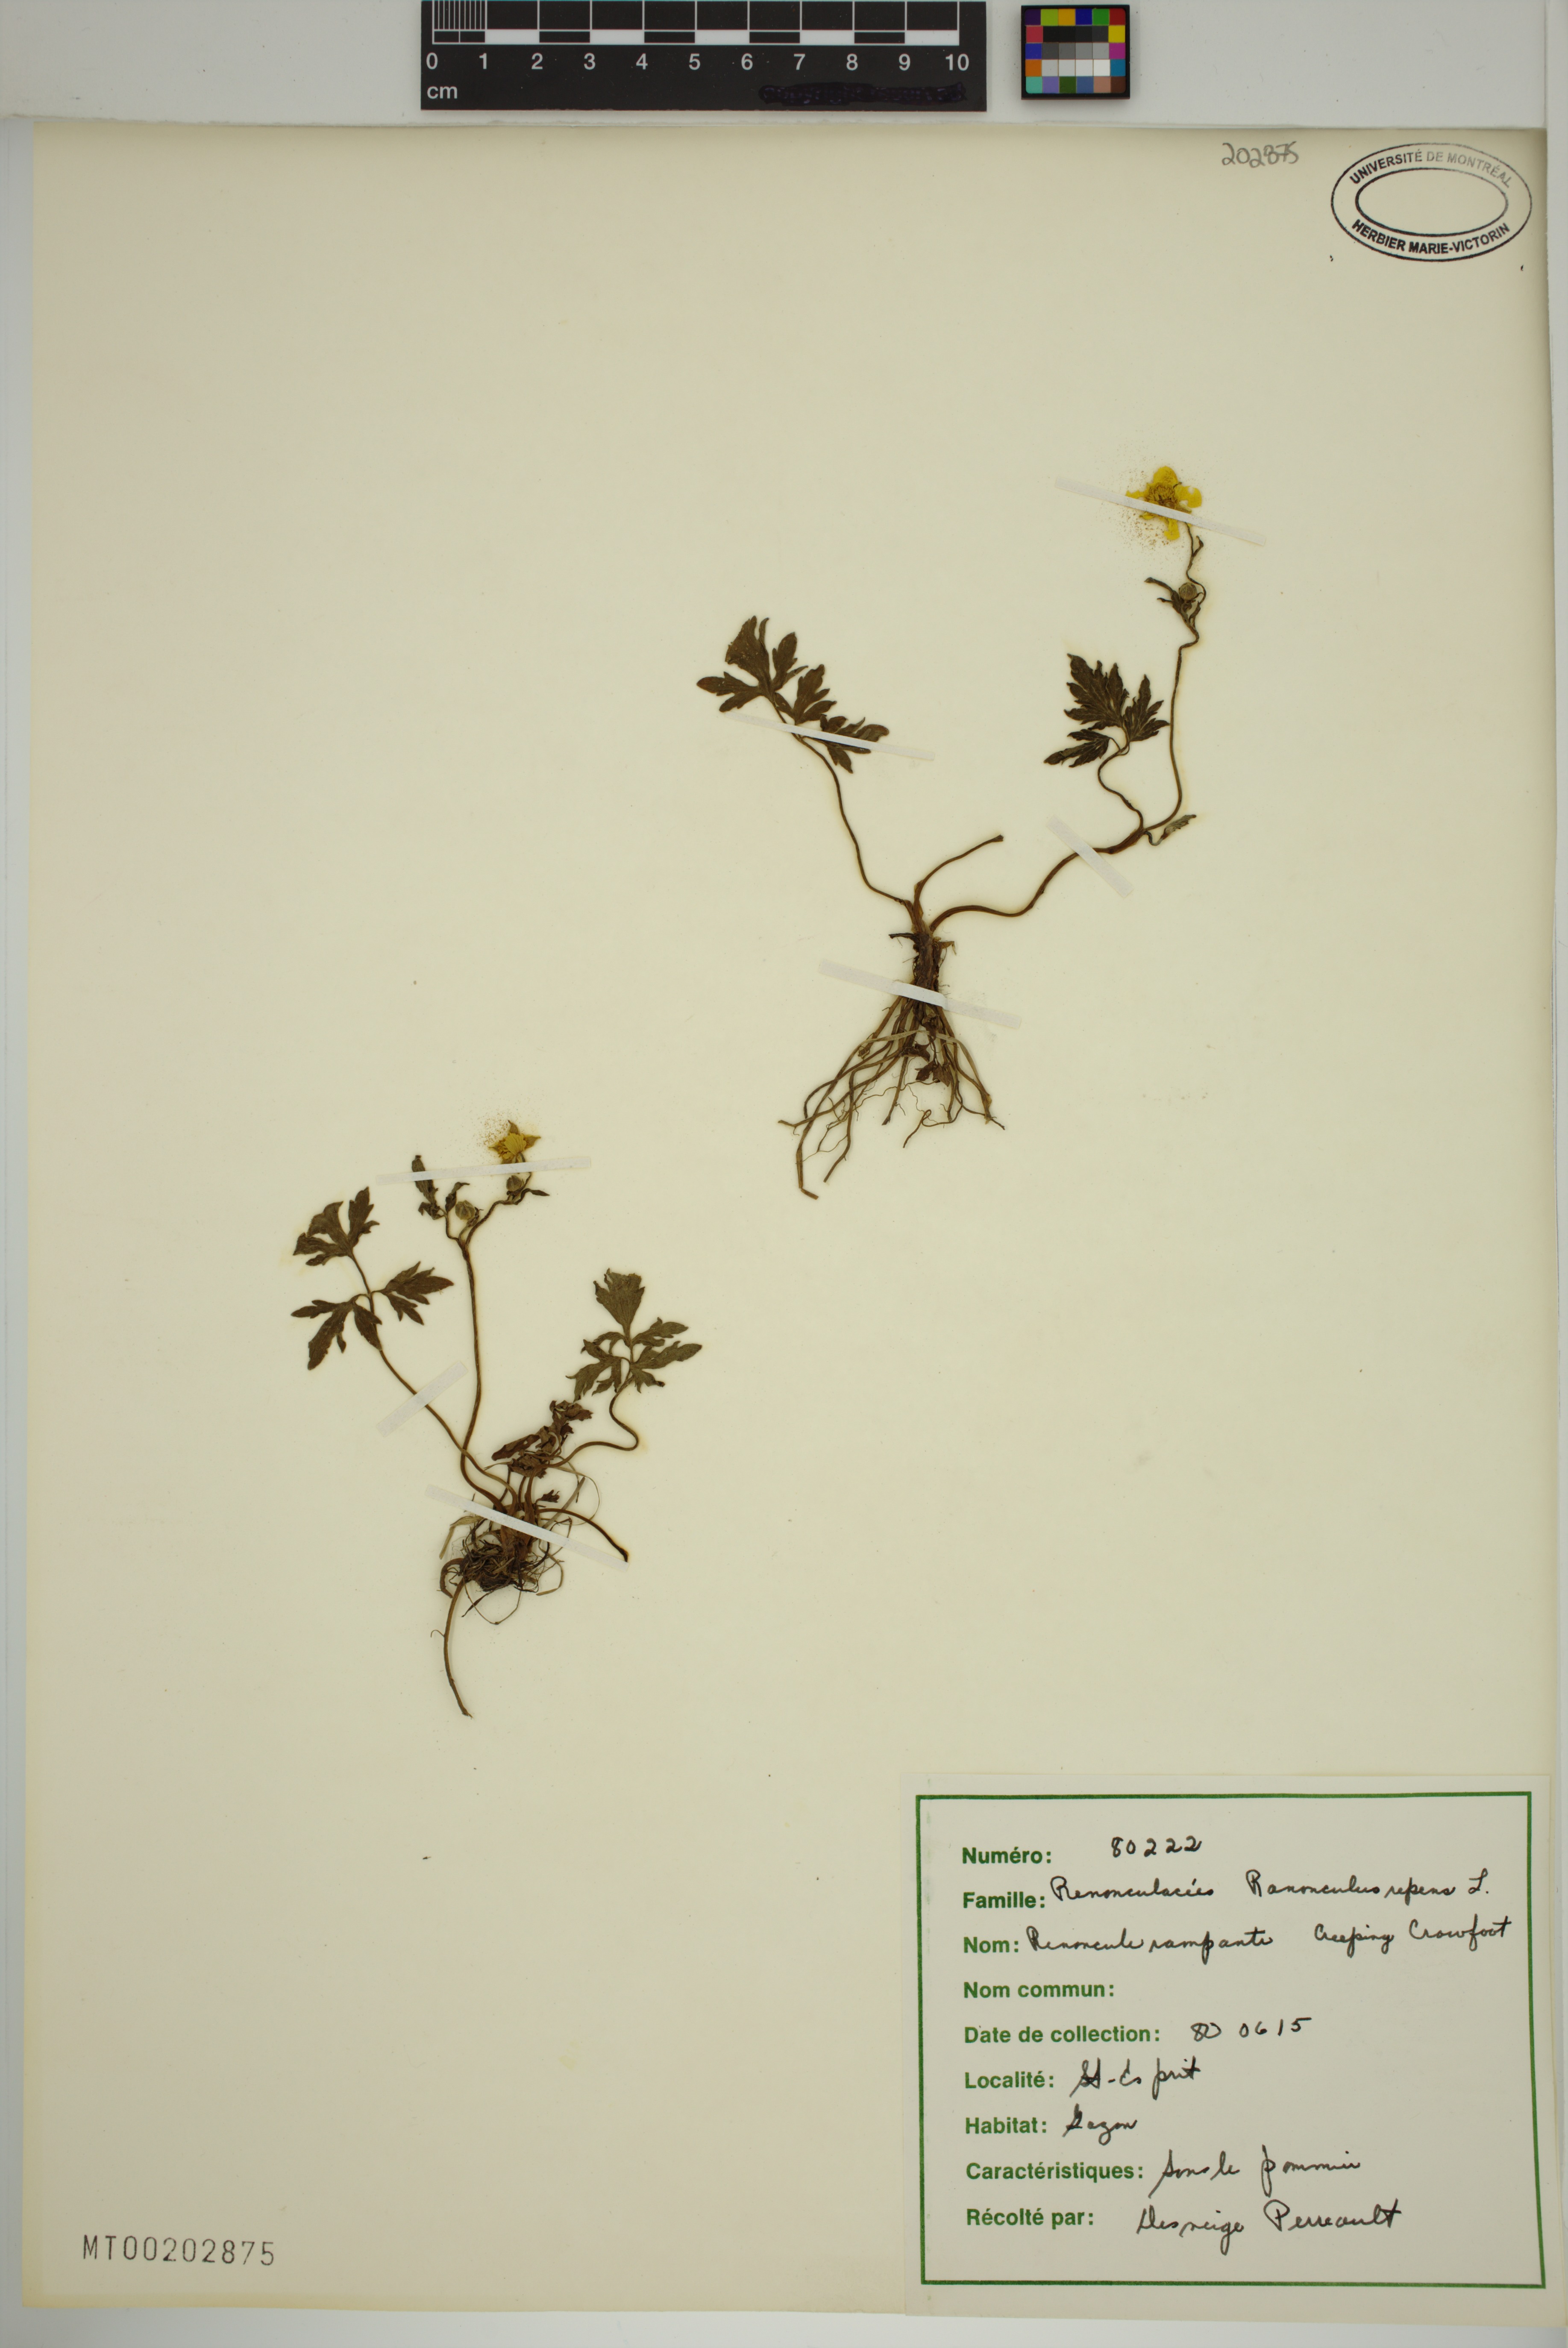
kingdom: Plantae
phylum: Tracheophyta
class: Magnoliopsida
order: Ranunculales
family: Ranunculaceae
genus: Ranunculus
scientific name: Ranunculus repens
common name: Creeping buttercup
